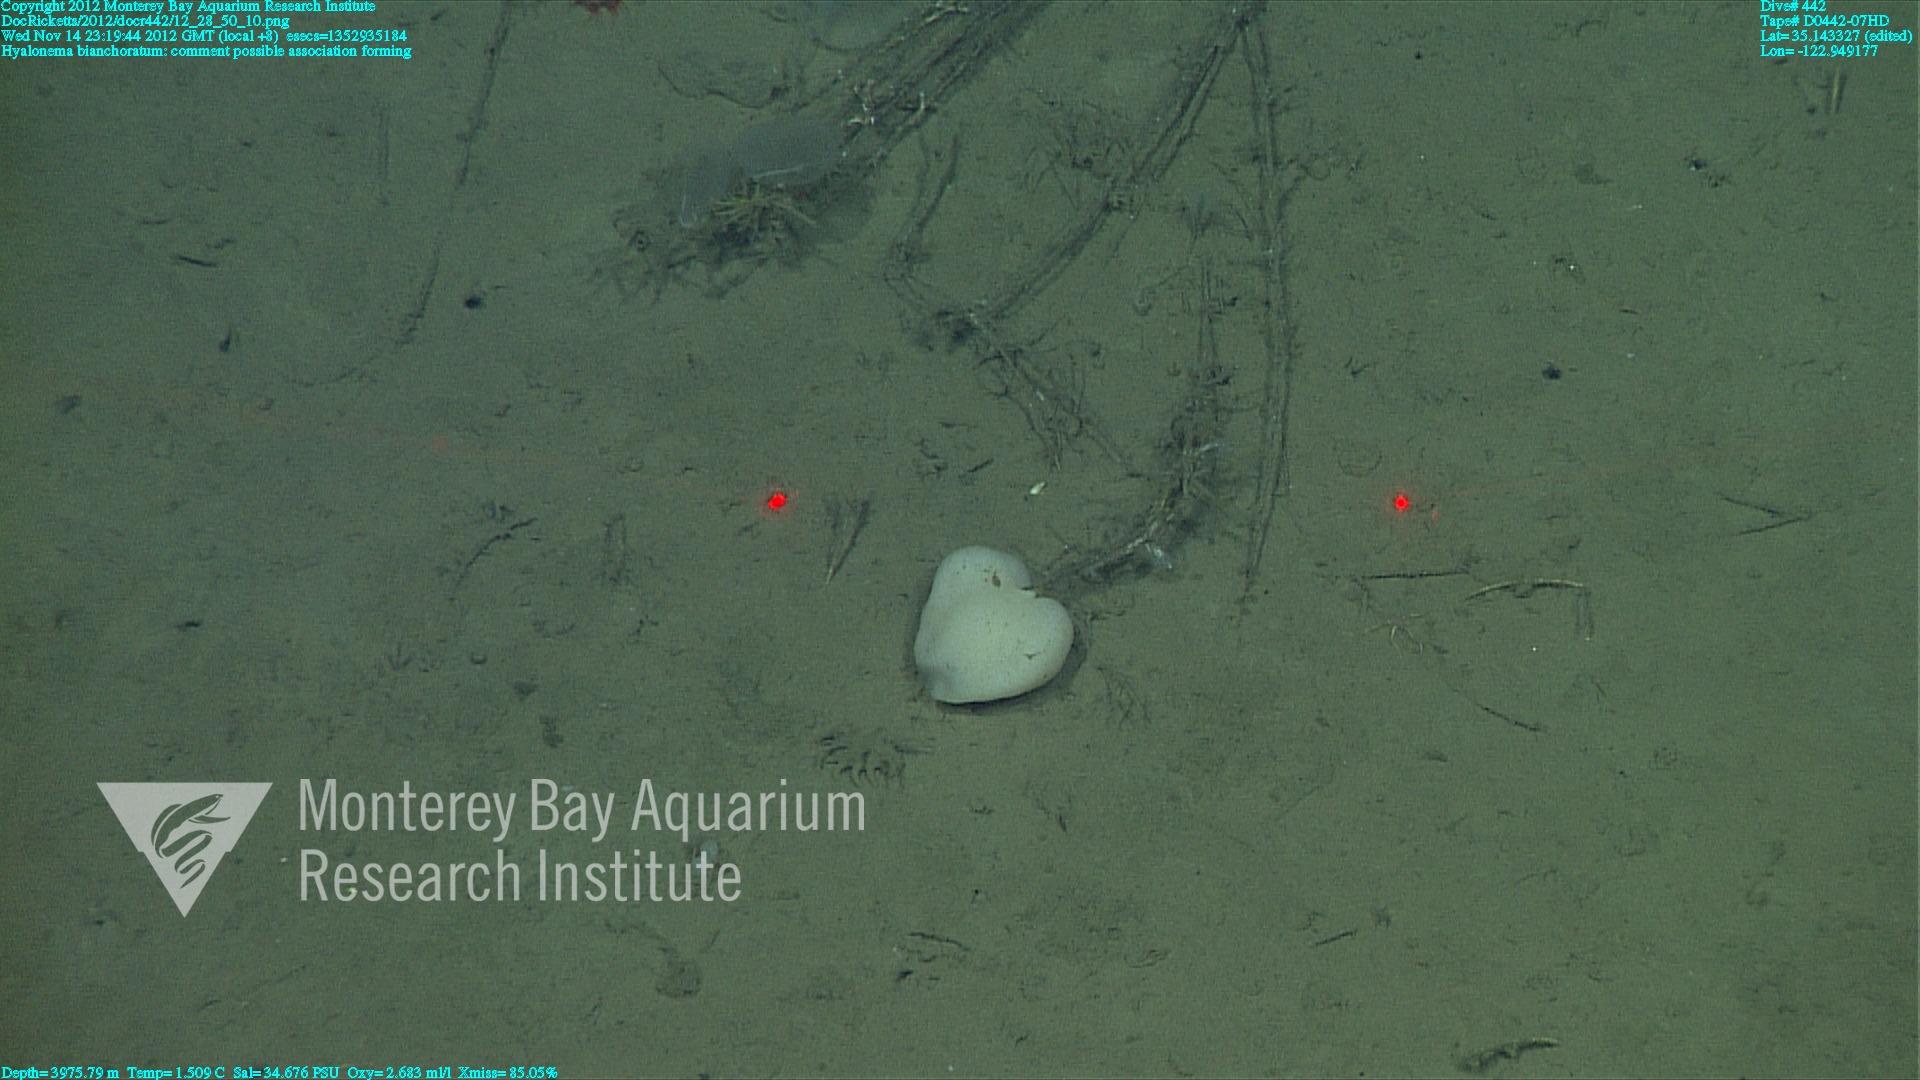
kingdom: Animalia
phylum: Porifera
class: Hexactinellida
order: Amphidiscosida
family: Hyalonematidae
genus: Hyalonema
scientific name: Hyalonema bianchoratum
